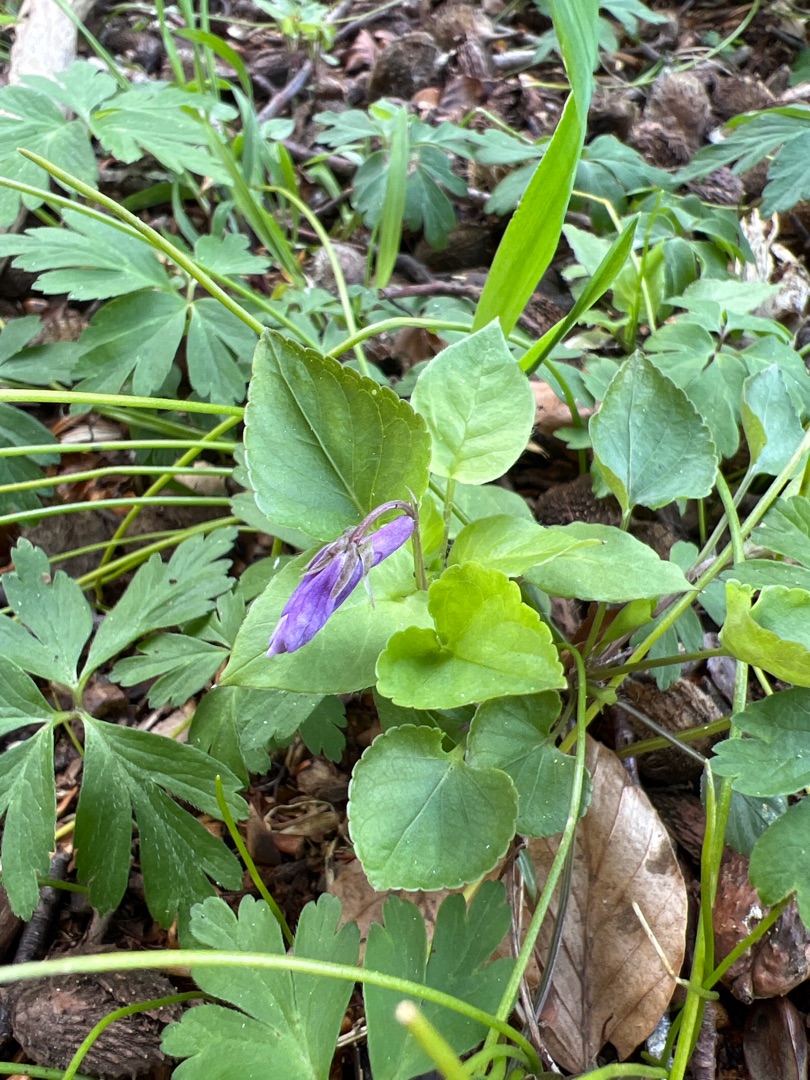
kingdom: Plantae
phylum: Tracheophyta
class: Magnoliopsida
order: Malpighiales
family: Violaceae
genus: Viola
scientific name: Viola reichenbachiana
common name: Skov-viol
